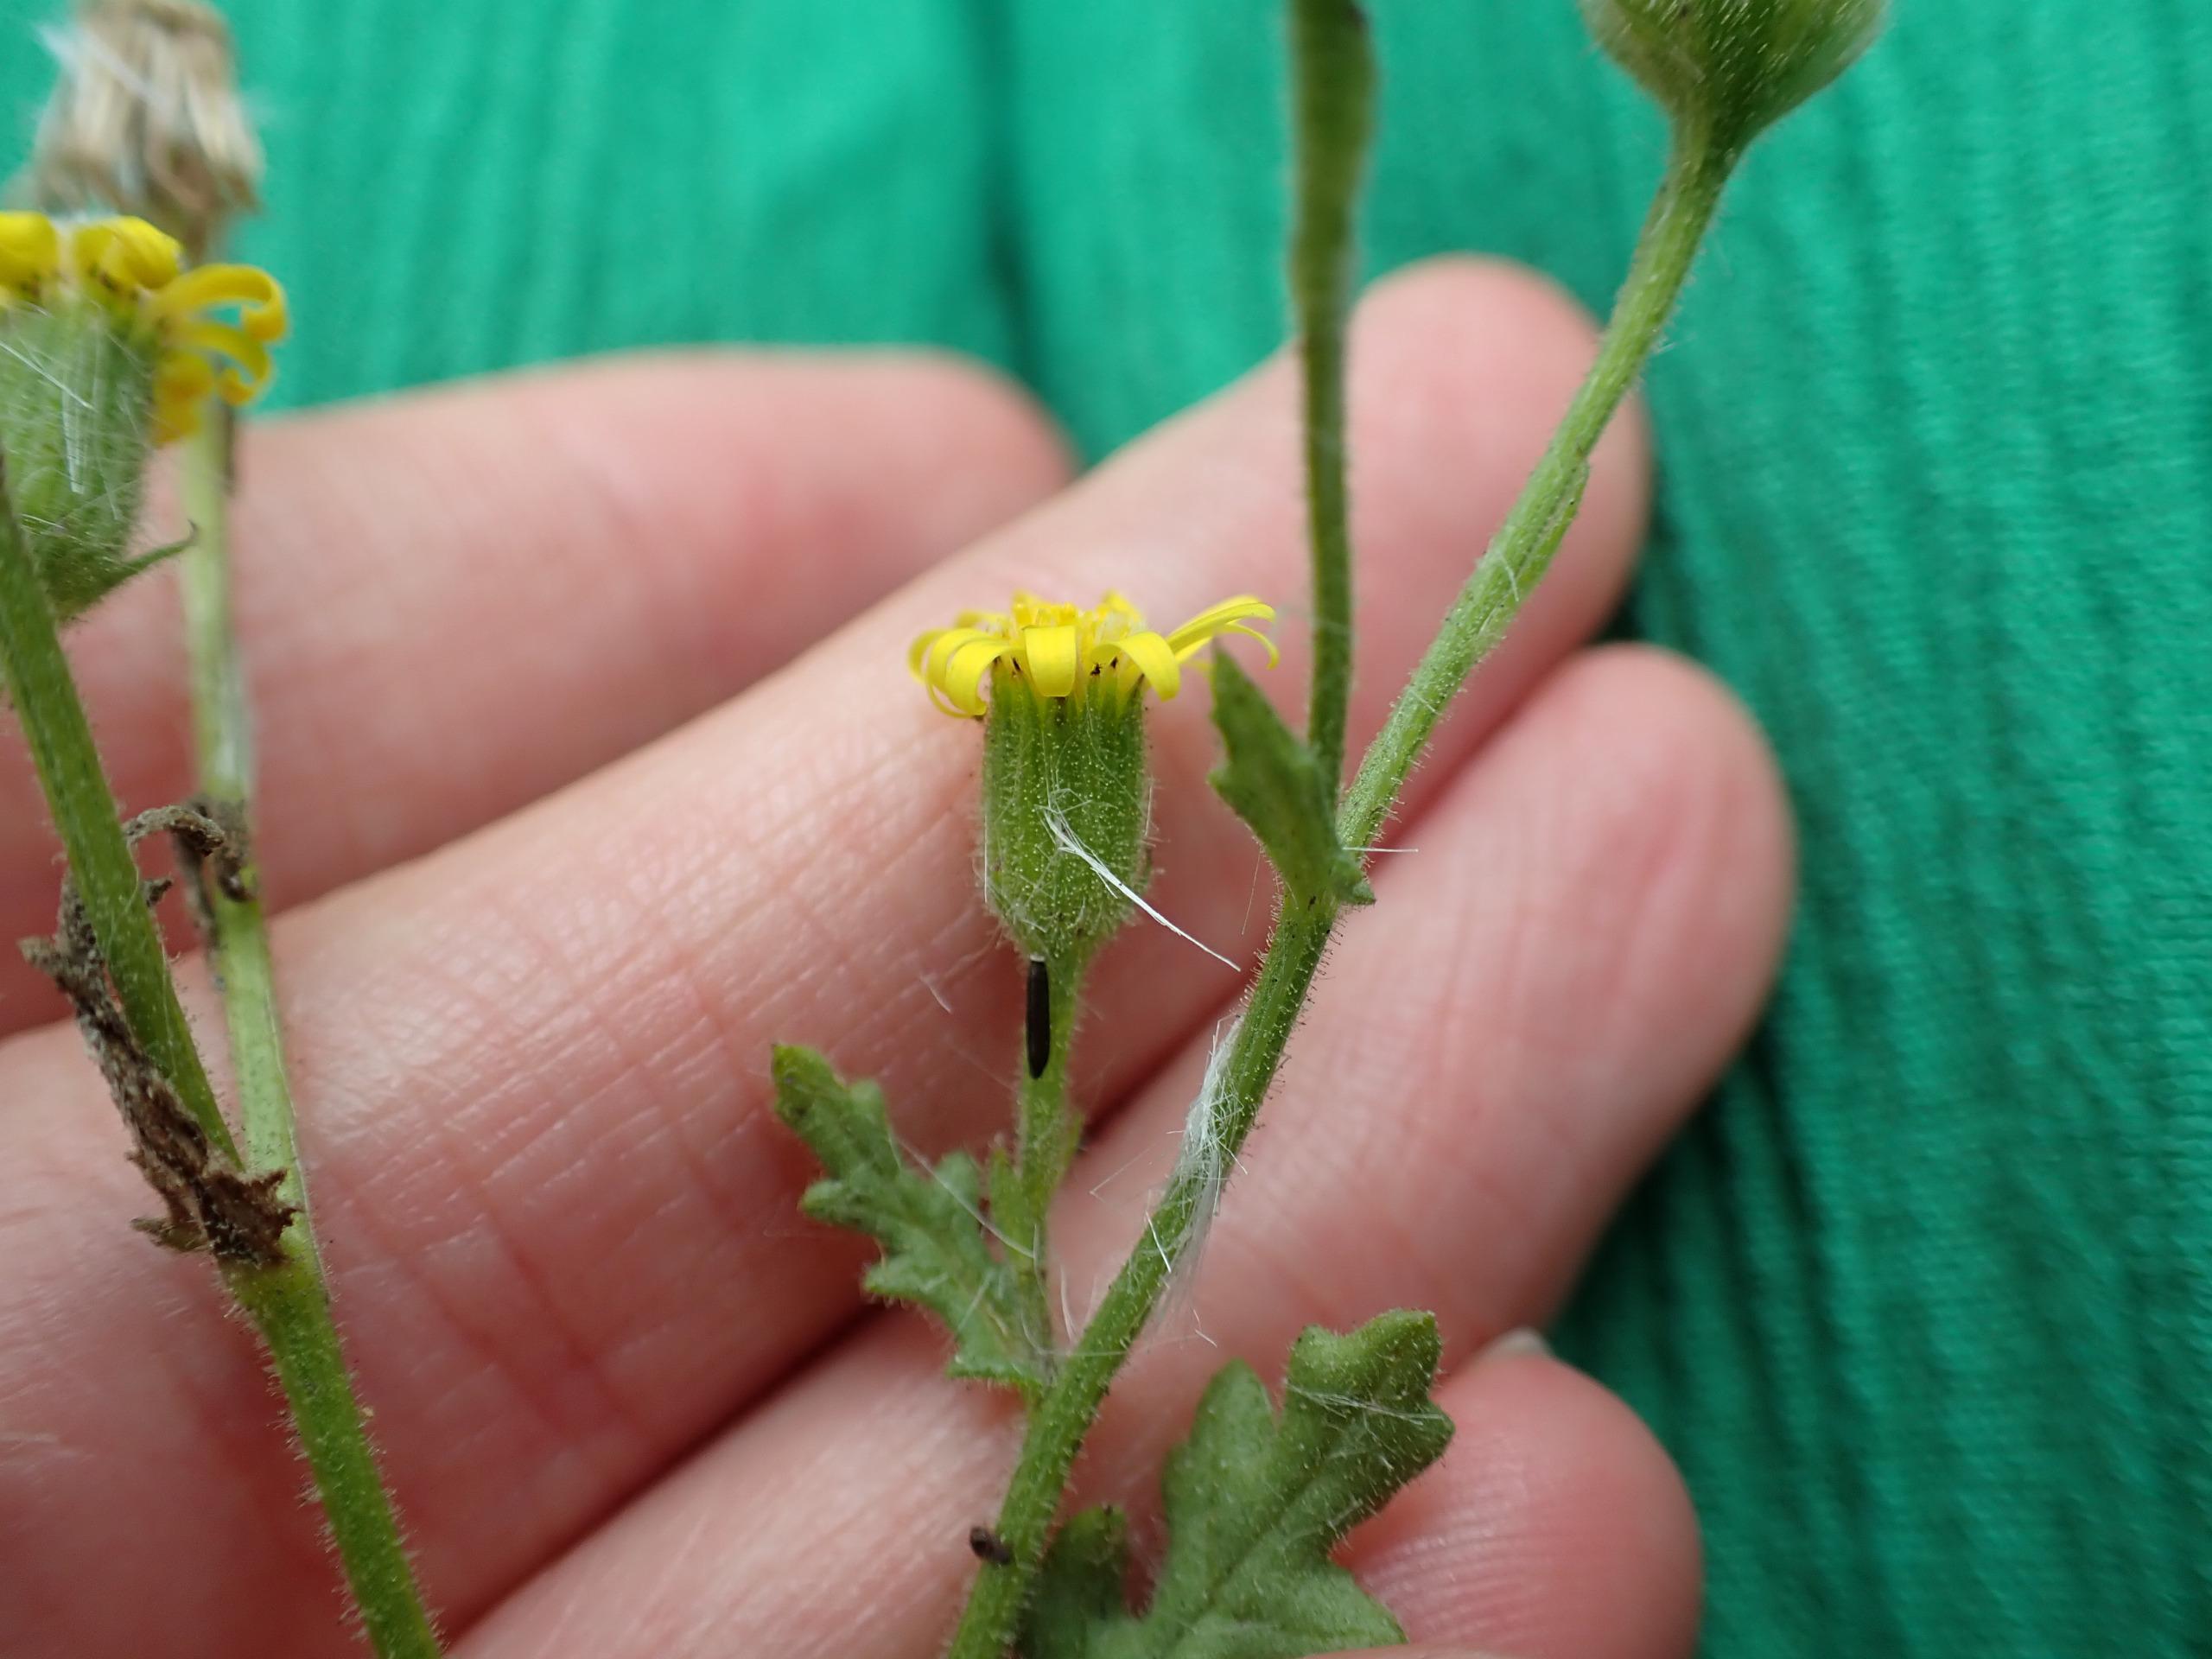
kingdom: Plantae
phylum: Tracheophyta
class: Magnoliopsida
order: Asterales
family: Asteraceae
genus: Senecio
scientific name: Senecio viscosus
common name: Klæbrig brandbæger
